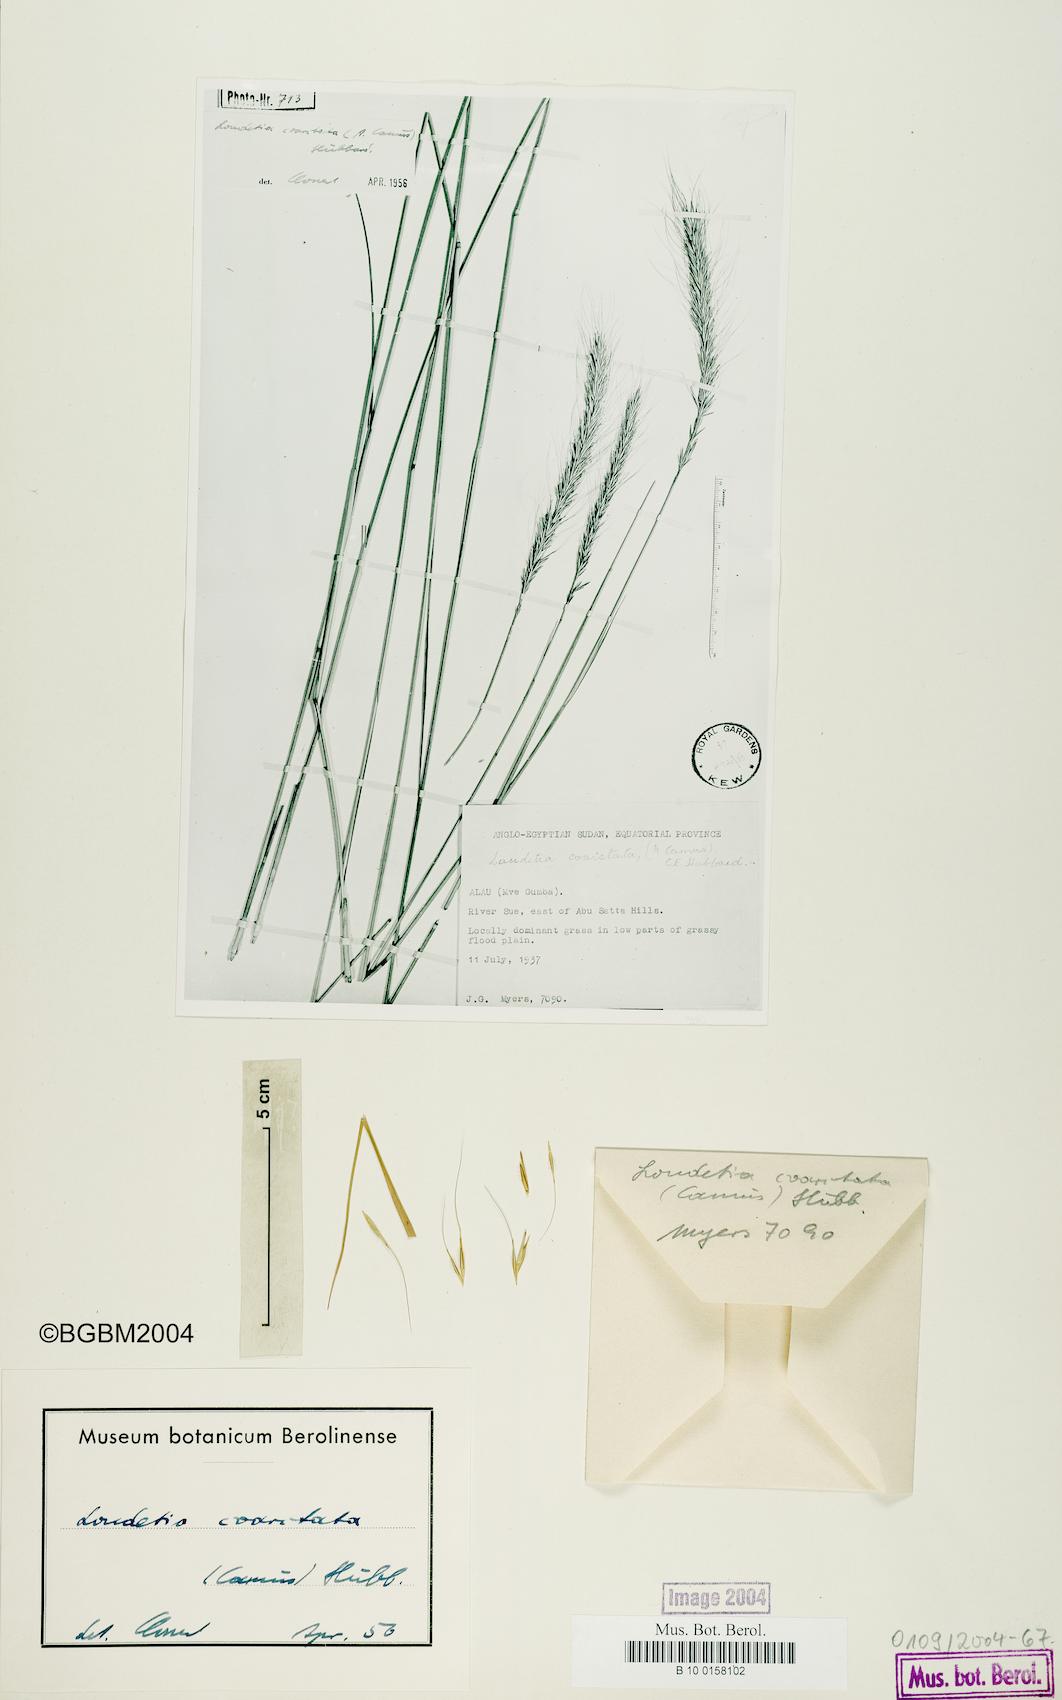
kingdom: Plantae
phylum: Tracheophyta
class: Liliopsida
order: Poales
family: Poaceae
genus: Loudetia
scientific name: Loudetia coarctata
